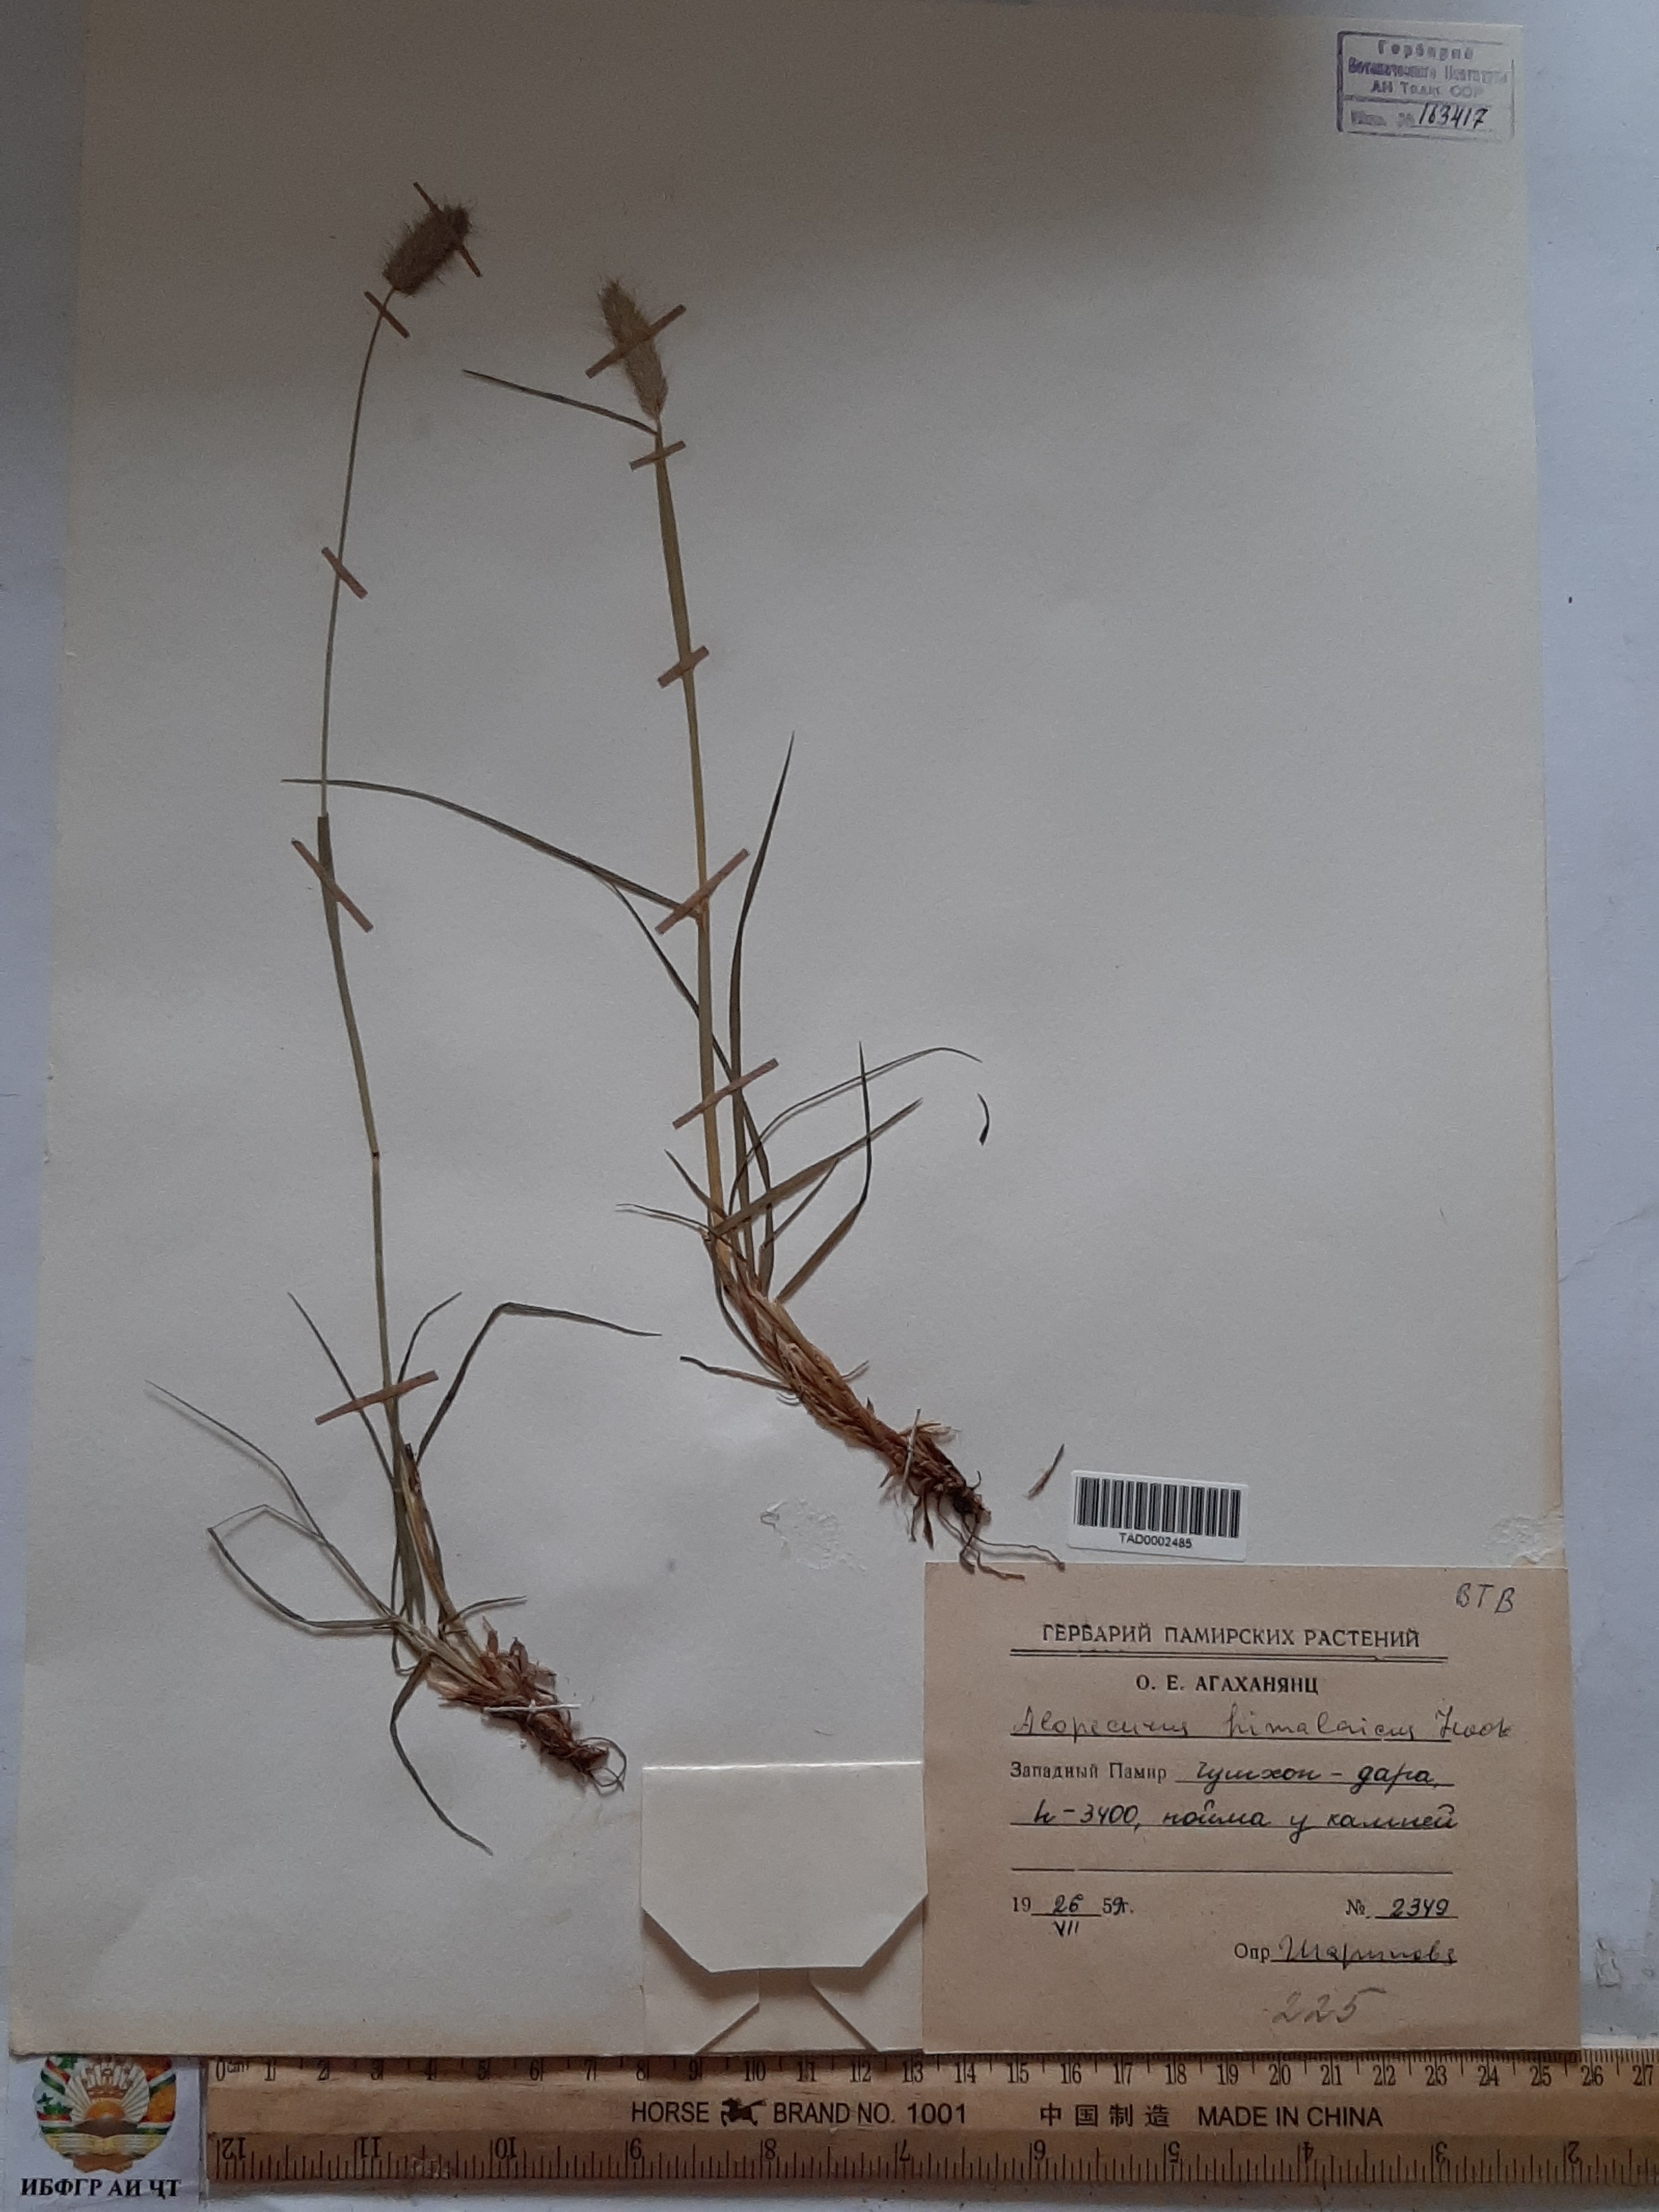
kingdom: Plantae
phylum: Tracheophyta
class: Liliopsida
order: Poales
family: Poaceae
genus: Alopecurus
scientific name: Alopecurus himalaicus
